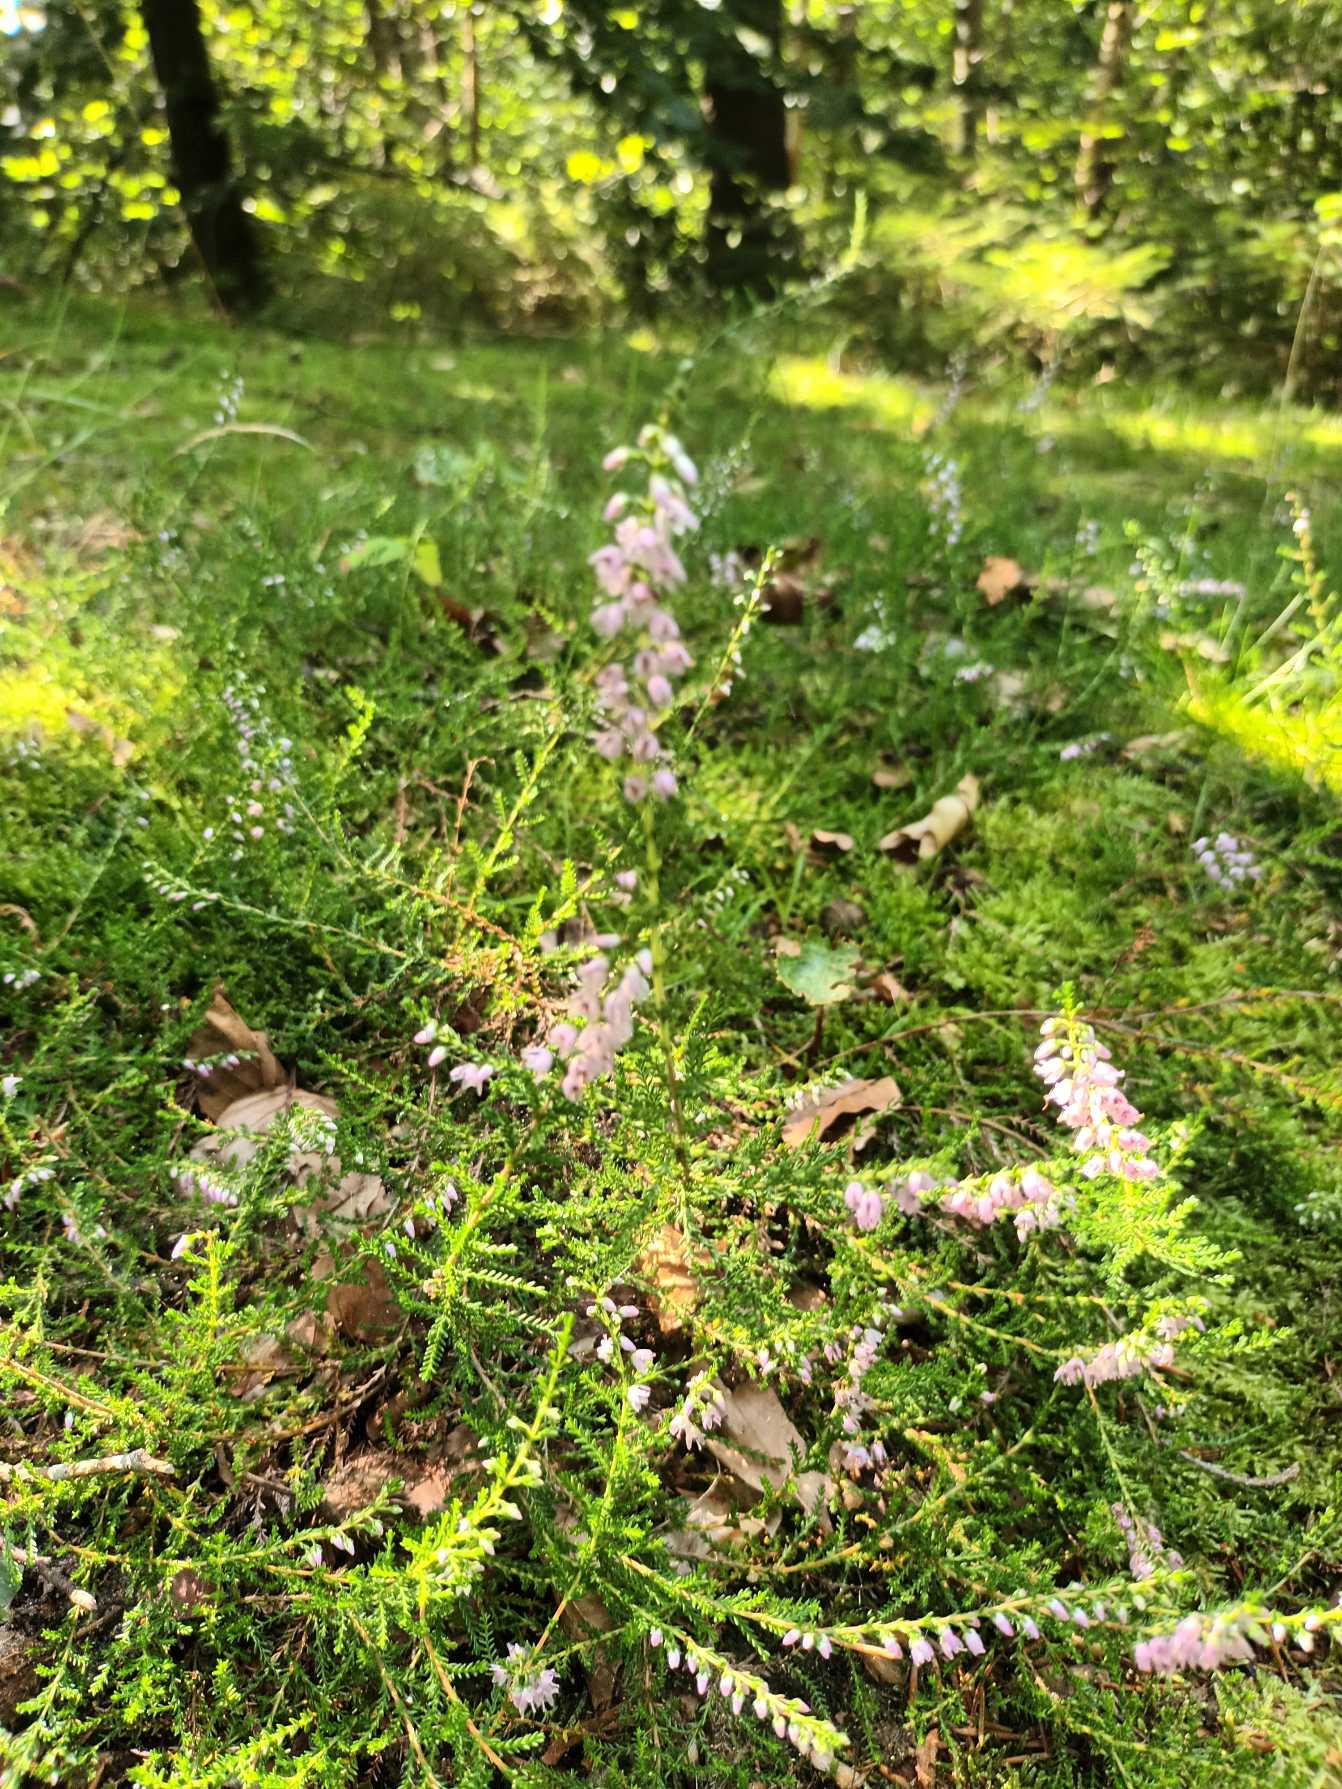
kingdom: Plantae
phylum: Tracheophyta
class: Magnoliopsida
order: Ericales
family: Ericaceae
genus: Calluna
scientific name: Calluna vulgaris
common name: Hedelyng
